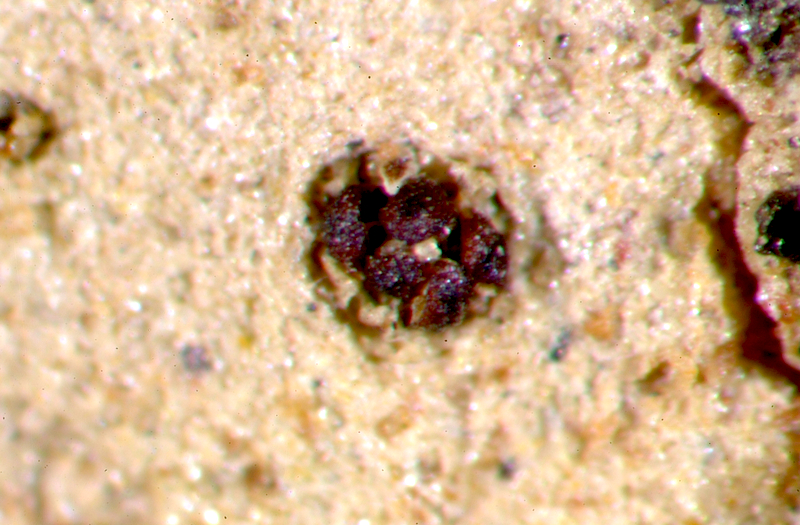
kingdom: Fungi
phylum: Ascomycota
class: Lecanoromycetes
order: Peltigerales
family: Collemataceae
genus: Enchylium
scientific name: Enchylium coccophorum
